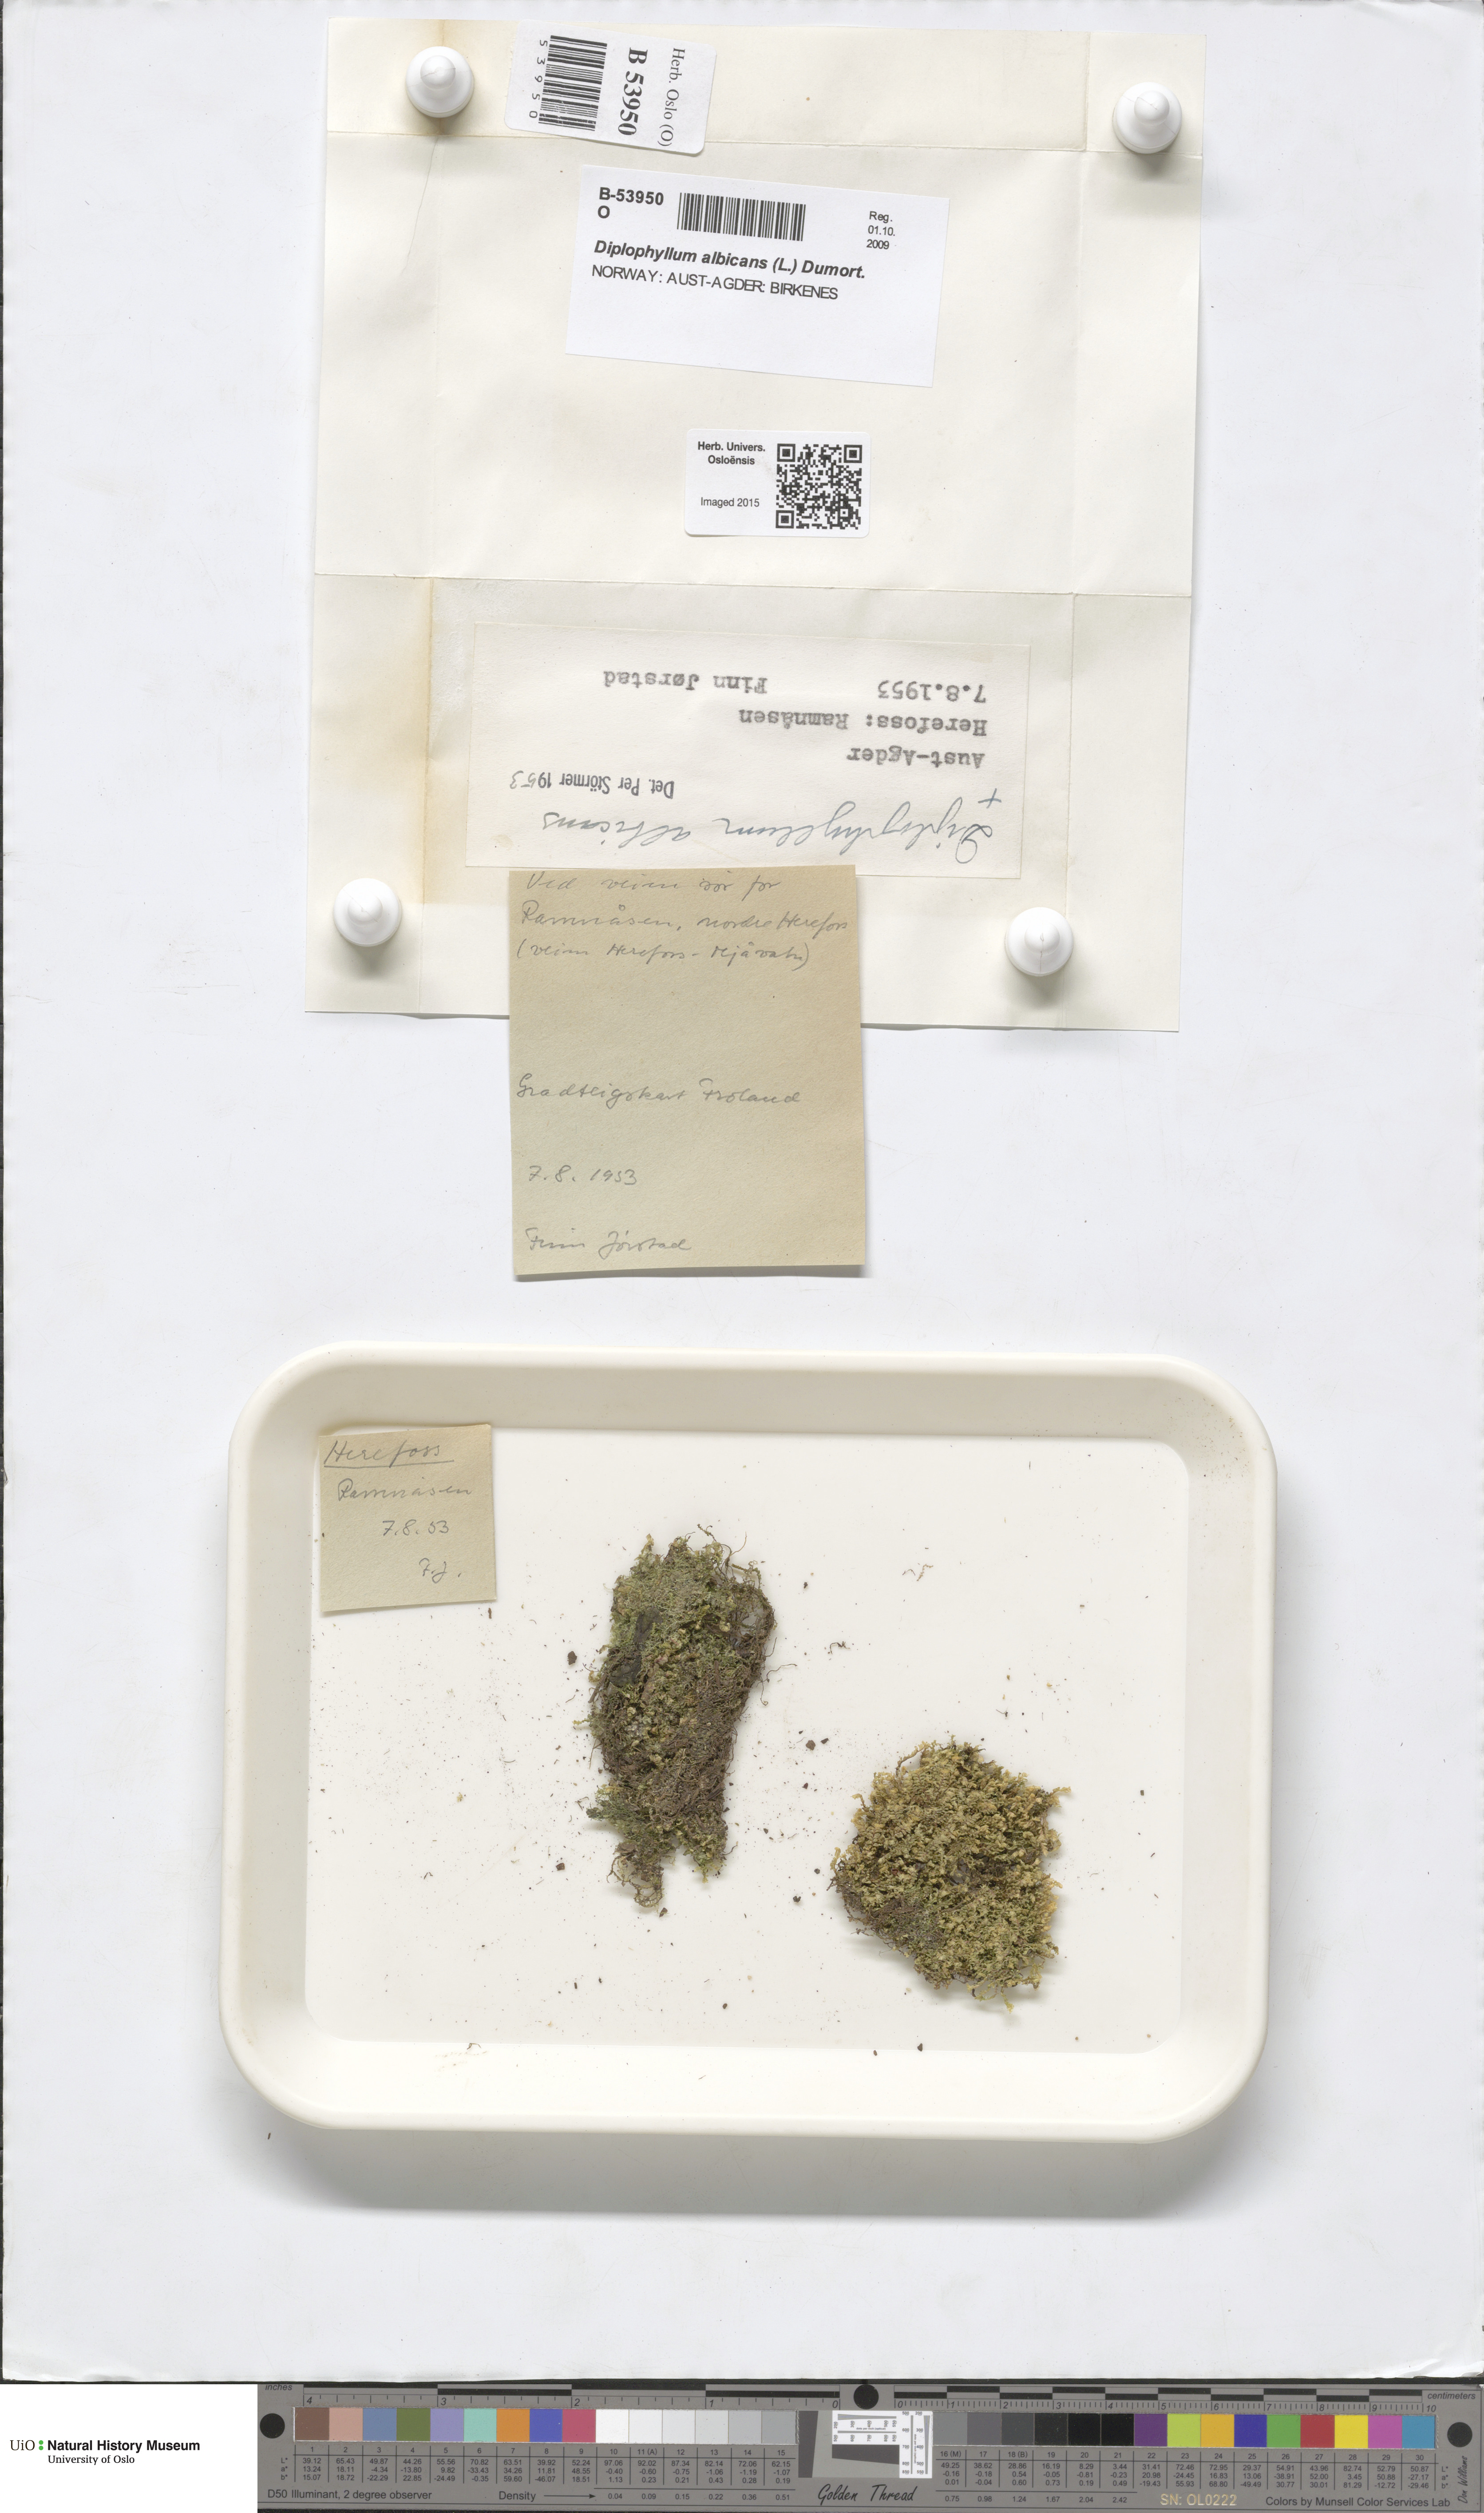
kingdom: Plantae
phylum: Marchantiophyta
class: Jungermanniopsida
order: Jungermanniales
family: Scapaniaceae
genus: Diplophyllum
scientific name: Diplophyllum albicans
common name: White earwort
